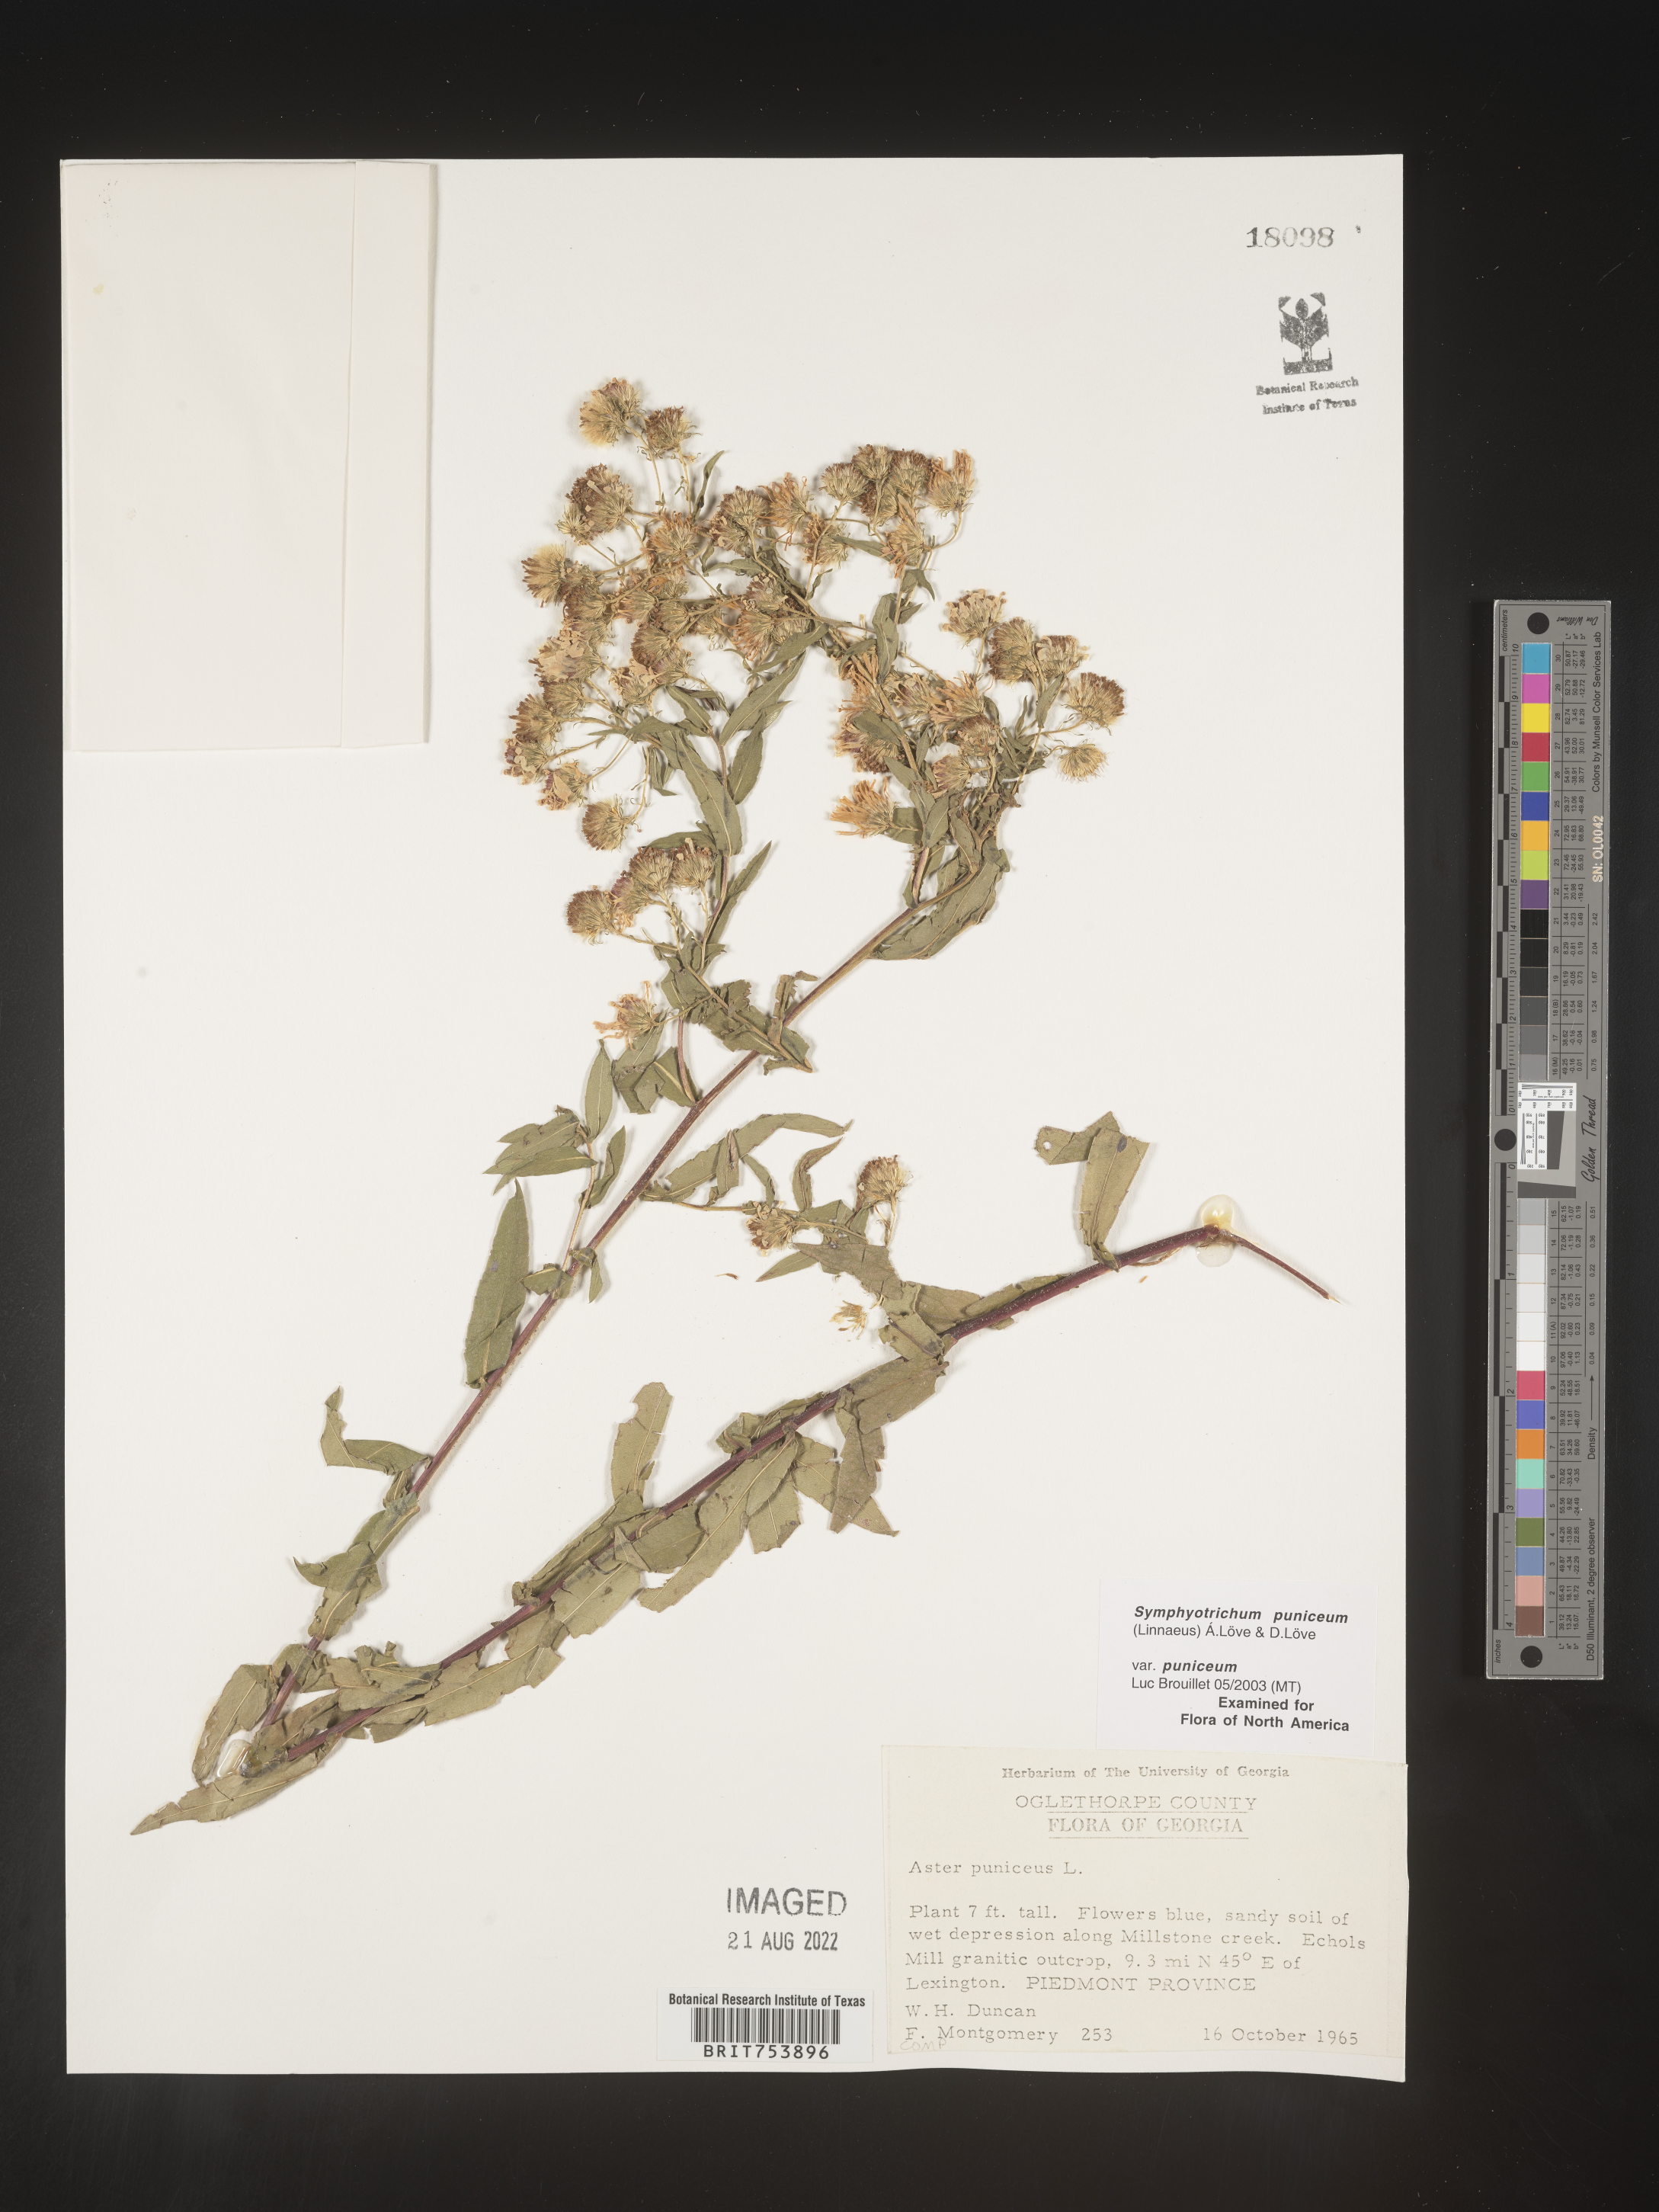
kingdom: Plantae
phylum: Tracheophyta
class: Magnoliopsida
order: Asterales
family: Asteraceae
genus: Symphyotrichum
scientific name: Symphyotrichum puniceum
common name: Bog aster
